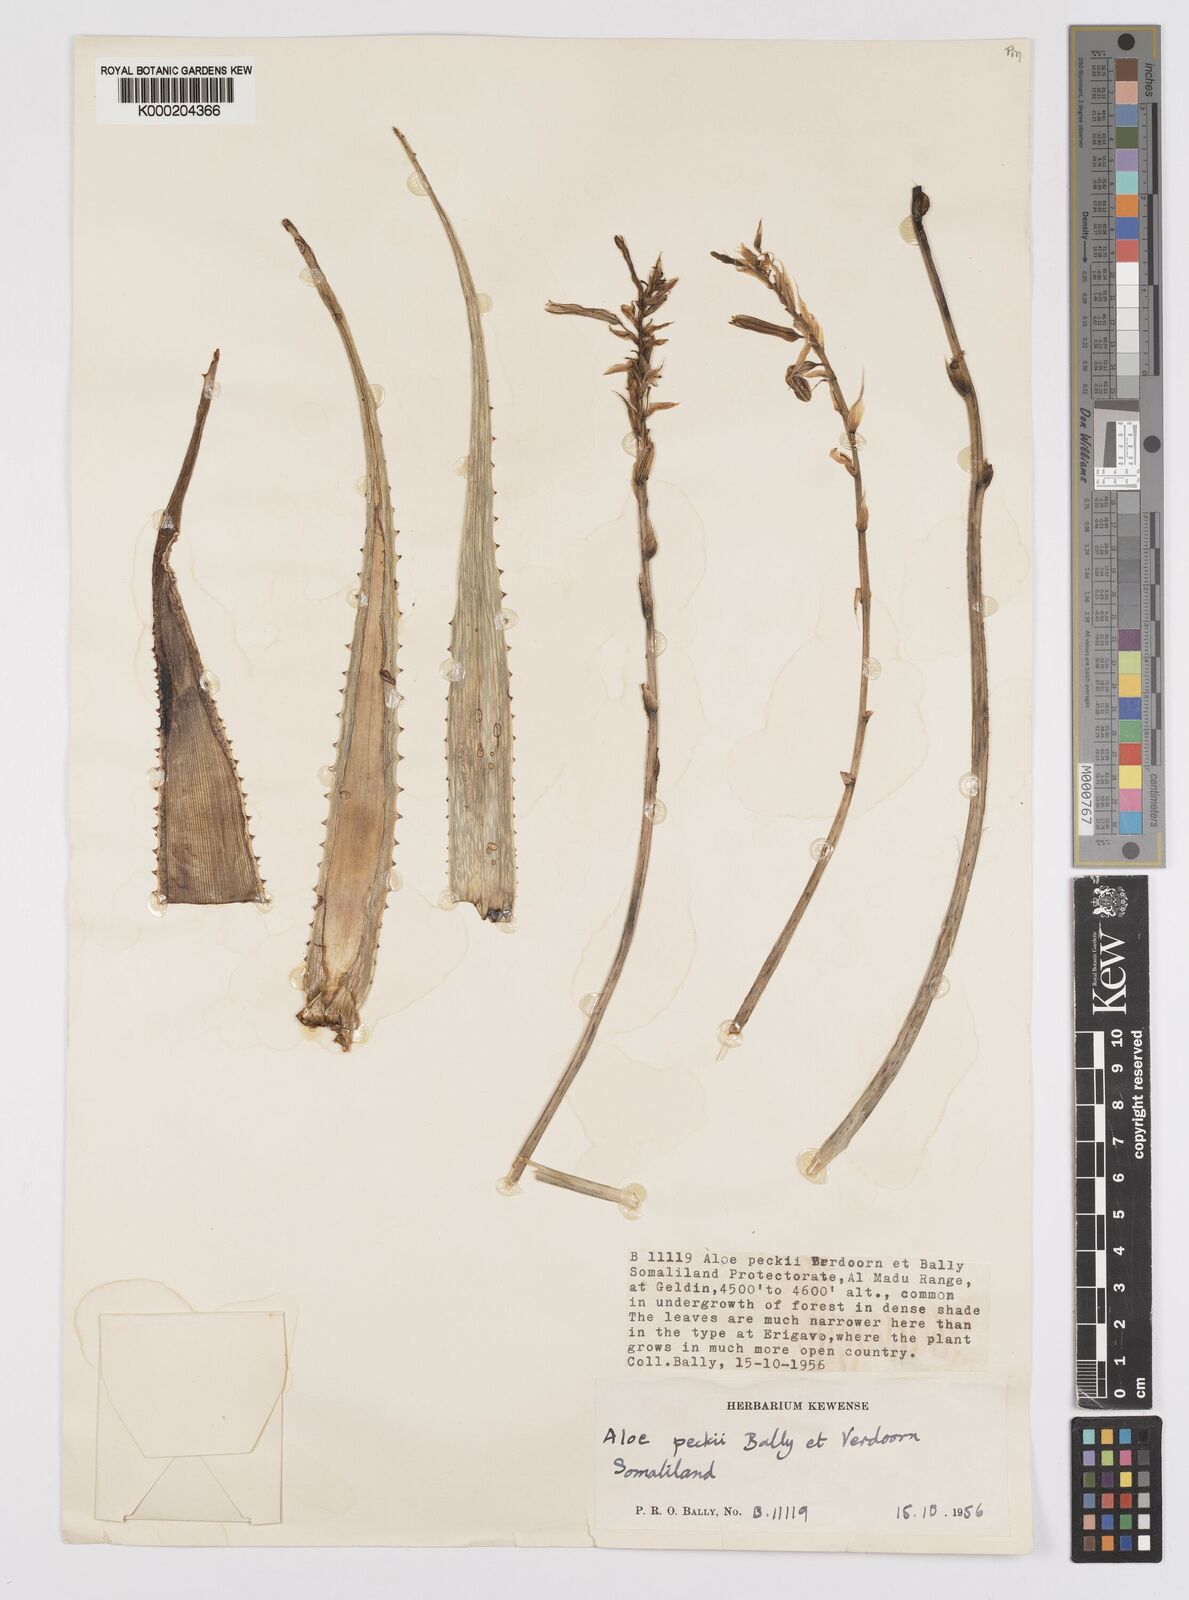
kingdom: Plantae
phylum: Tracheophyta
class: Liliopsida
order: Asparagales
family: Asphodelaceae
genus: Aloe
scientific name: Aloe peckii
